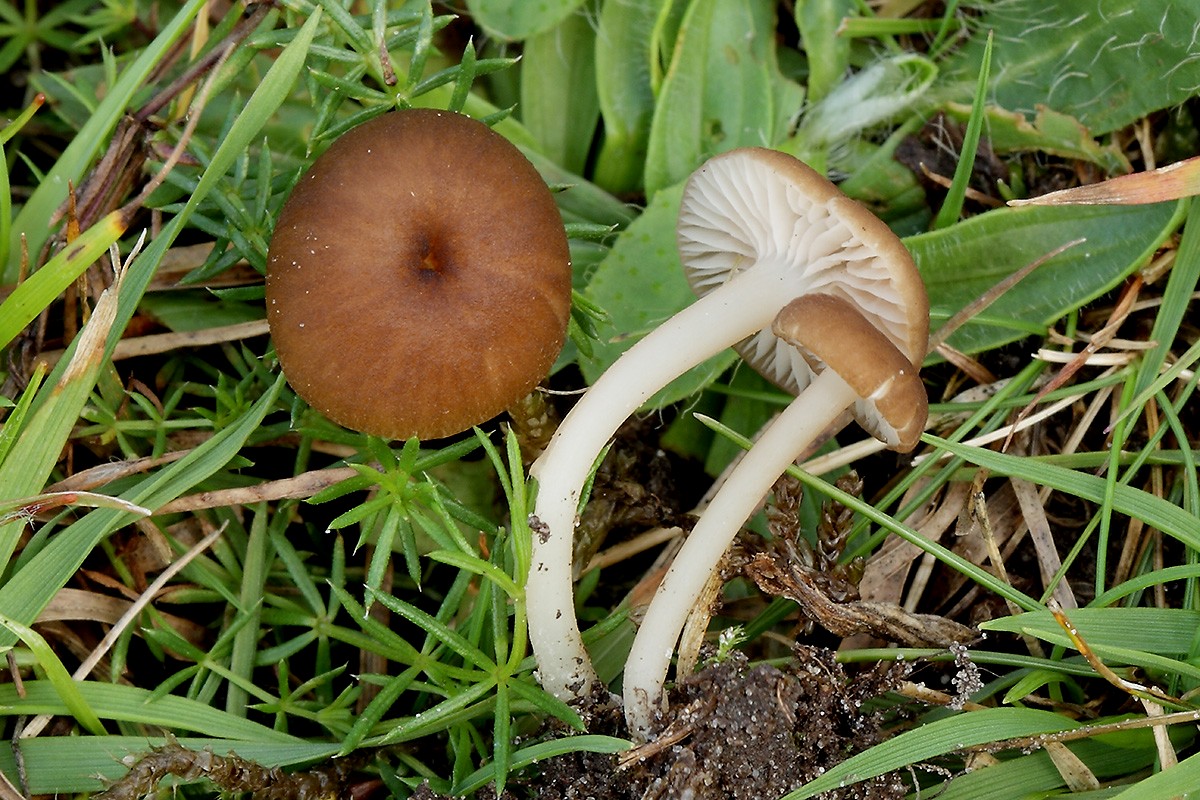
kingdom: Fungi
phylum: Basidiomycota
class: Agaricomycetes
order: Agaricales
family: Entolomataceae
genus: Entoloma
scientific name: Entoloma olivaceotinctum
